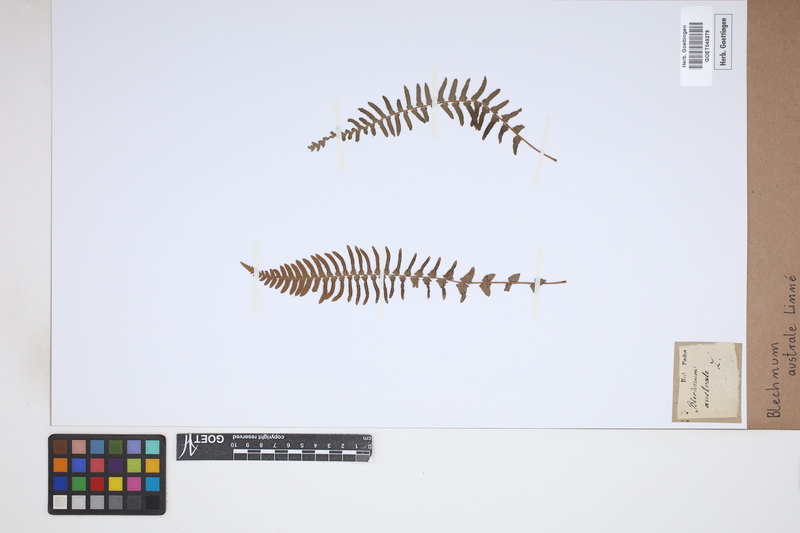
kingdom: Plantae
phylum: Tracheophyta
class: Polypodiopsida
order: Polypodiales
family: Blechnaceae
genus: Blechnum
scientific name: Blechnum australe
